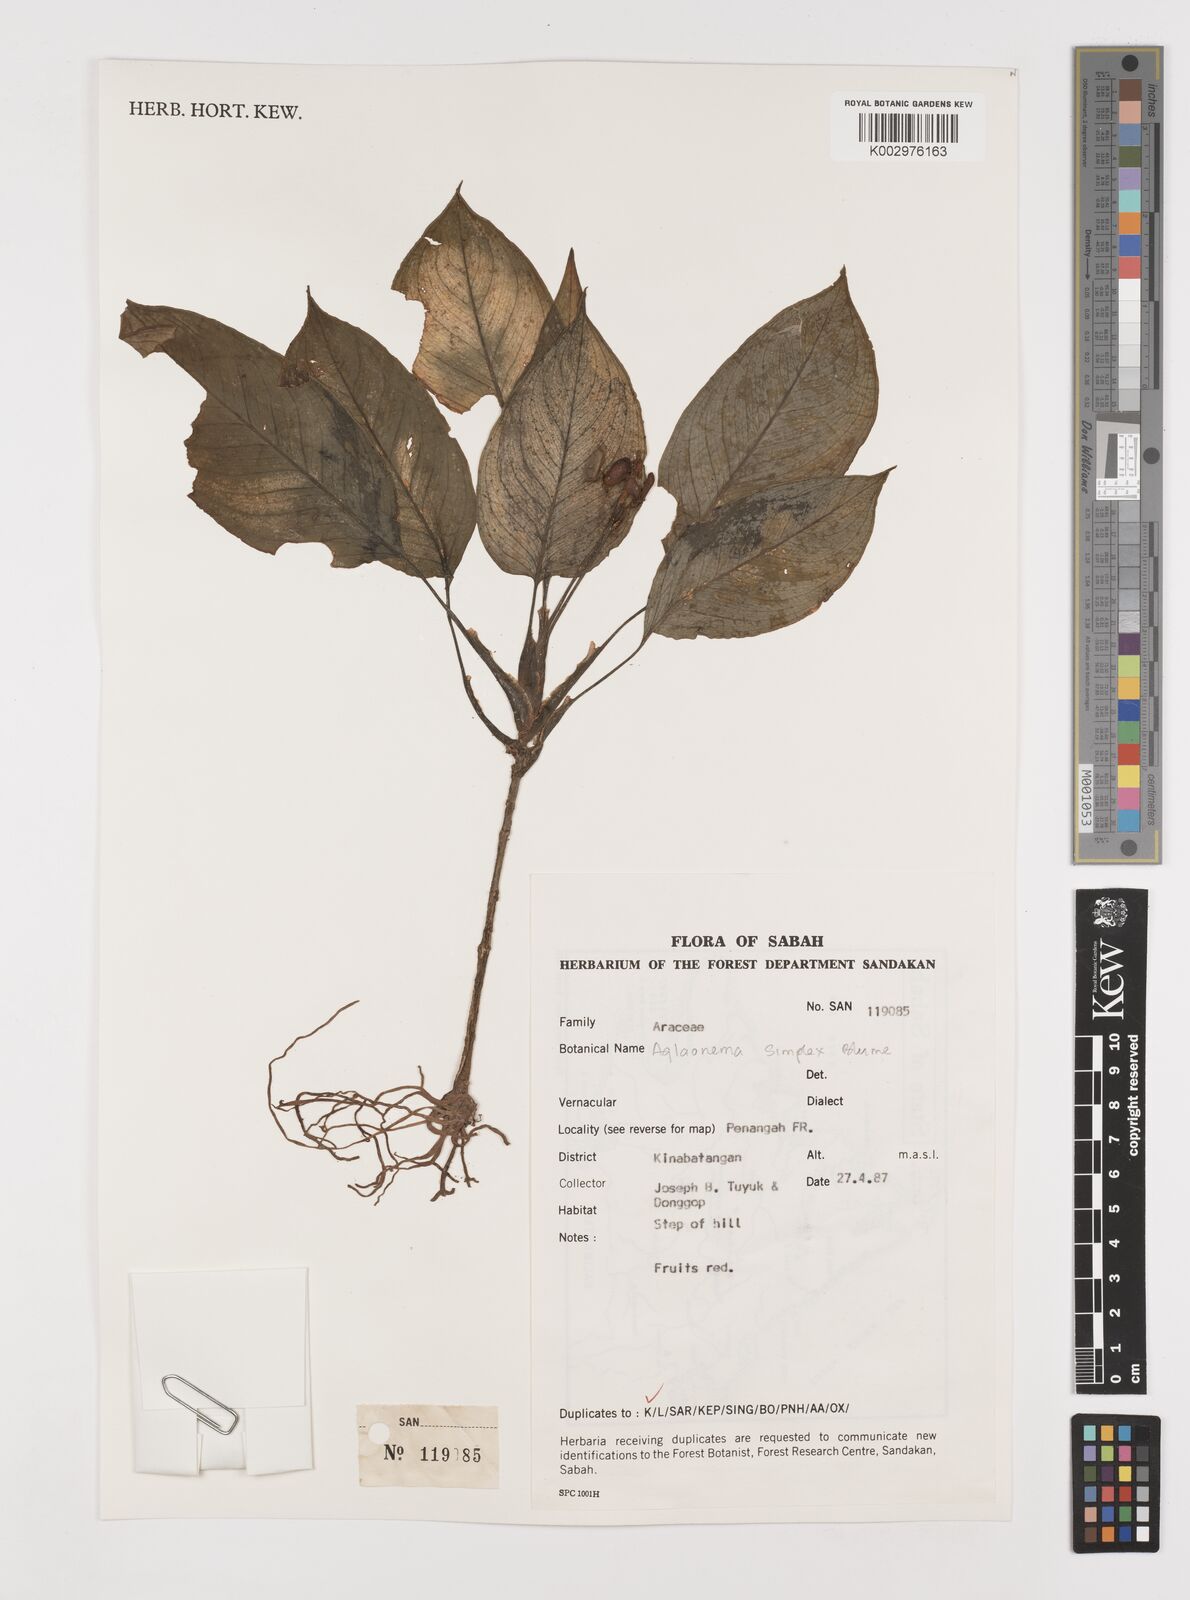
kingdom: Plantae
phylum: Tracheophyta
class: Liliopsida
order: Alismatales
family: Araceae
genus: Aglaonema
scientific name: Aglaonema simplex
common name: Malayan-sword
